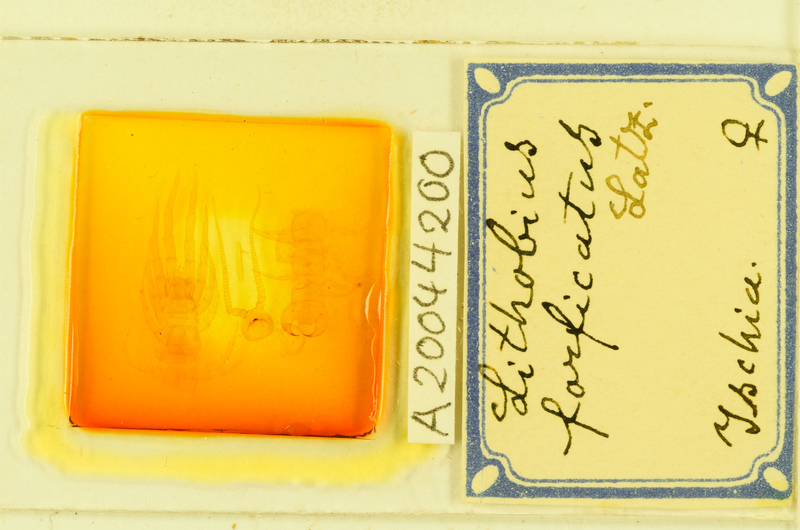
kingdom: Animalia
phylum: Arthropoda
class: Chilopoda
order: Lithobiomorpha
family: Lithobiidae
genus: Lithobius
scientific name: Lithobius forficatus
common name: Centipede
